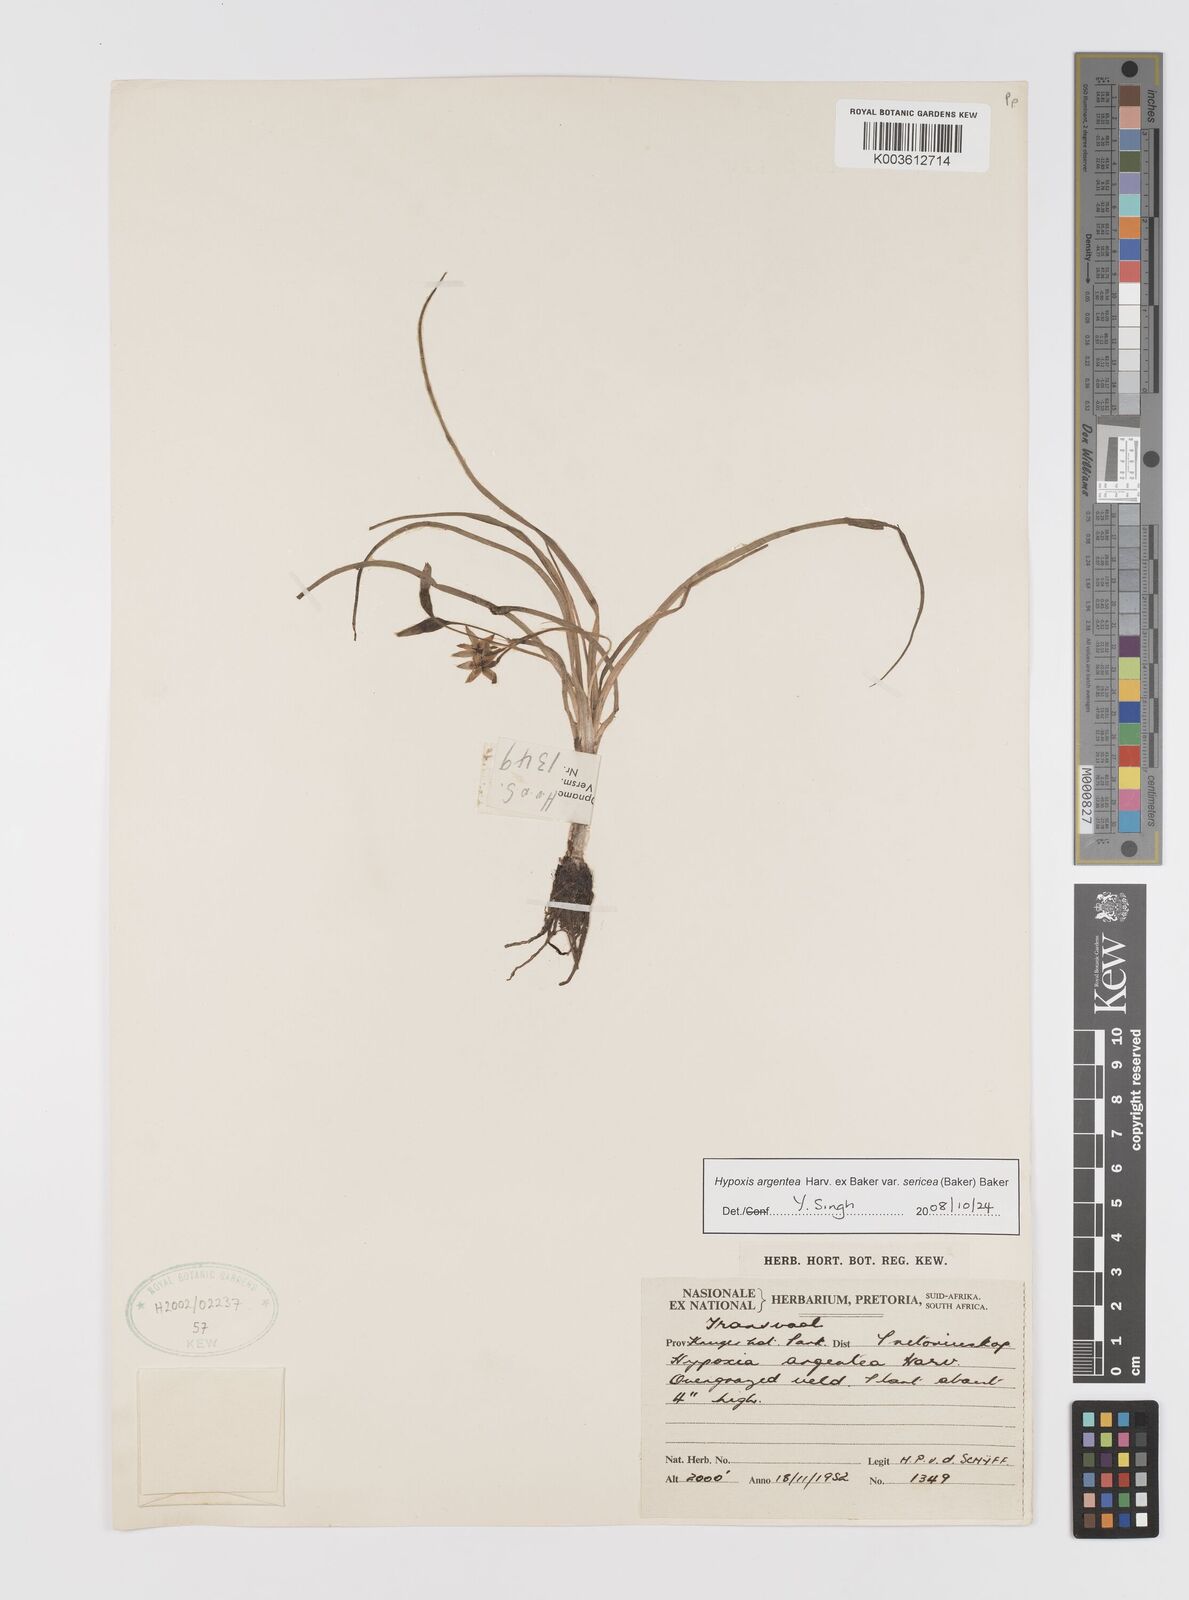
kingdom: Plantae
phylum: Tracheophyta
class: Liliopsida
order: Asparagales
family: Hypoxidaceae
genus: Hypoxis
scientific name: Hypoxis argentea
